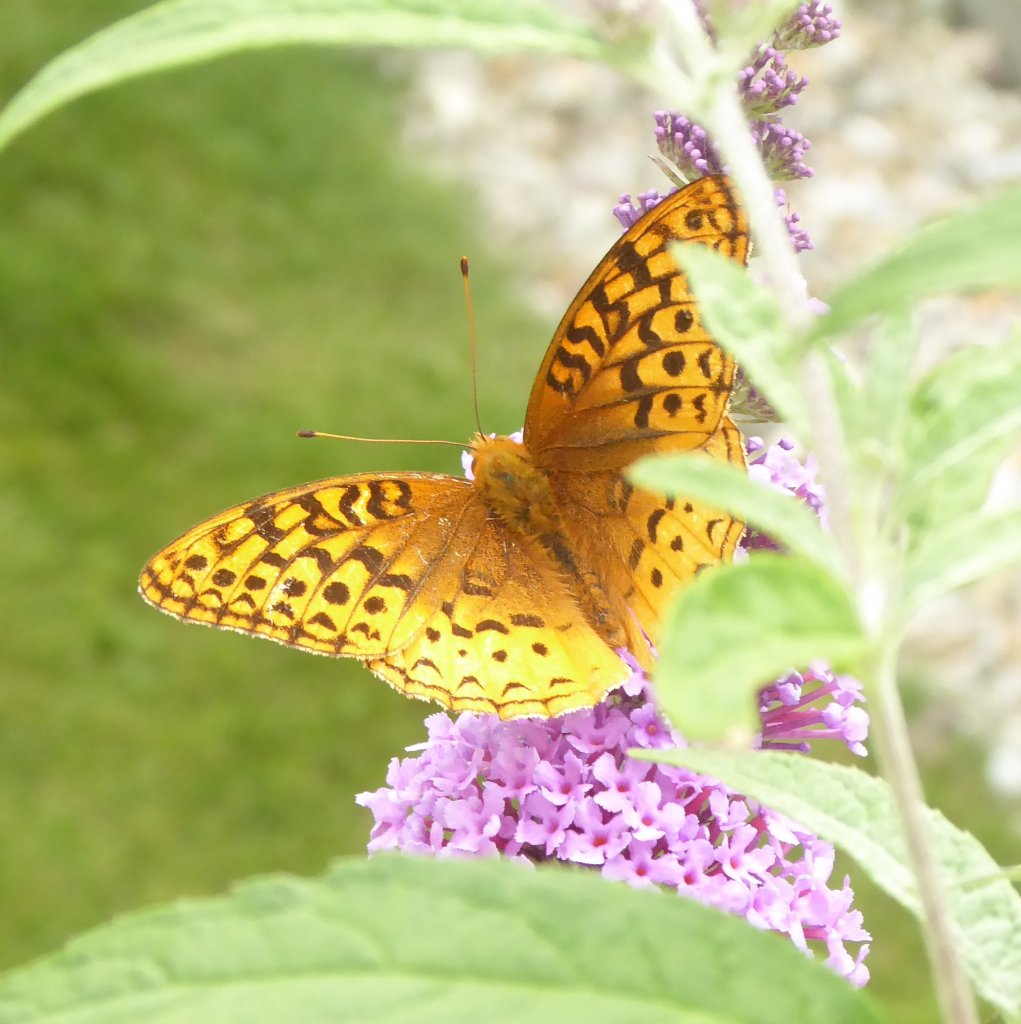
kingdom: Animalia
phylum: Arthropoda
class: Insecta
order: Lepidoptera
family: Nymphalidae
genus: Speyeria
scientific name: Speyeria cybele
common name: Great Spangled Fritillary
